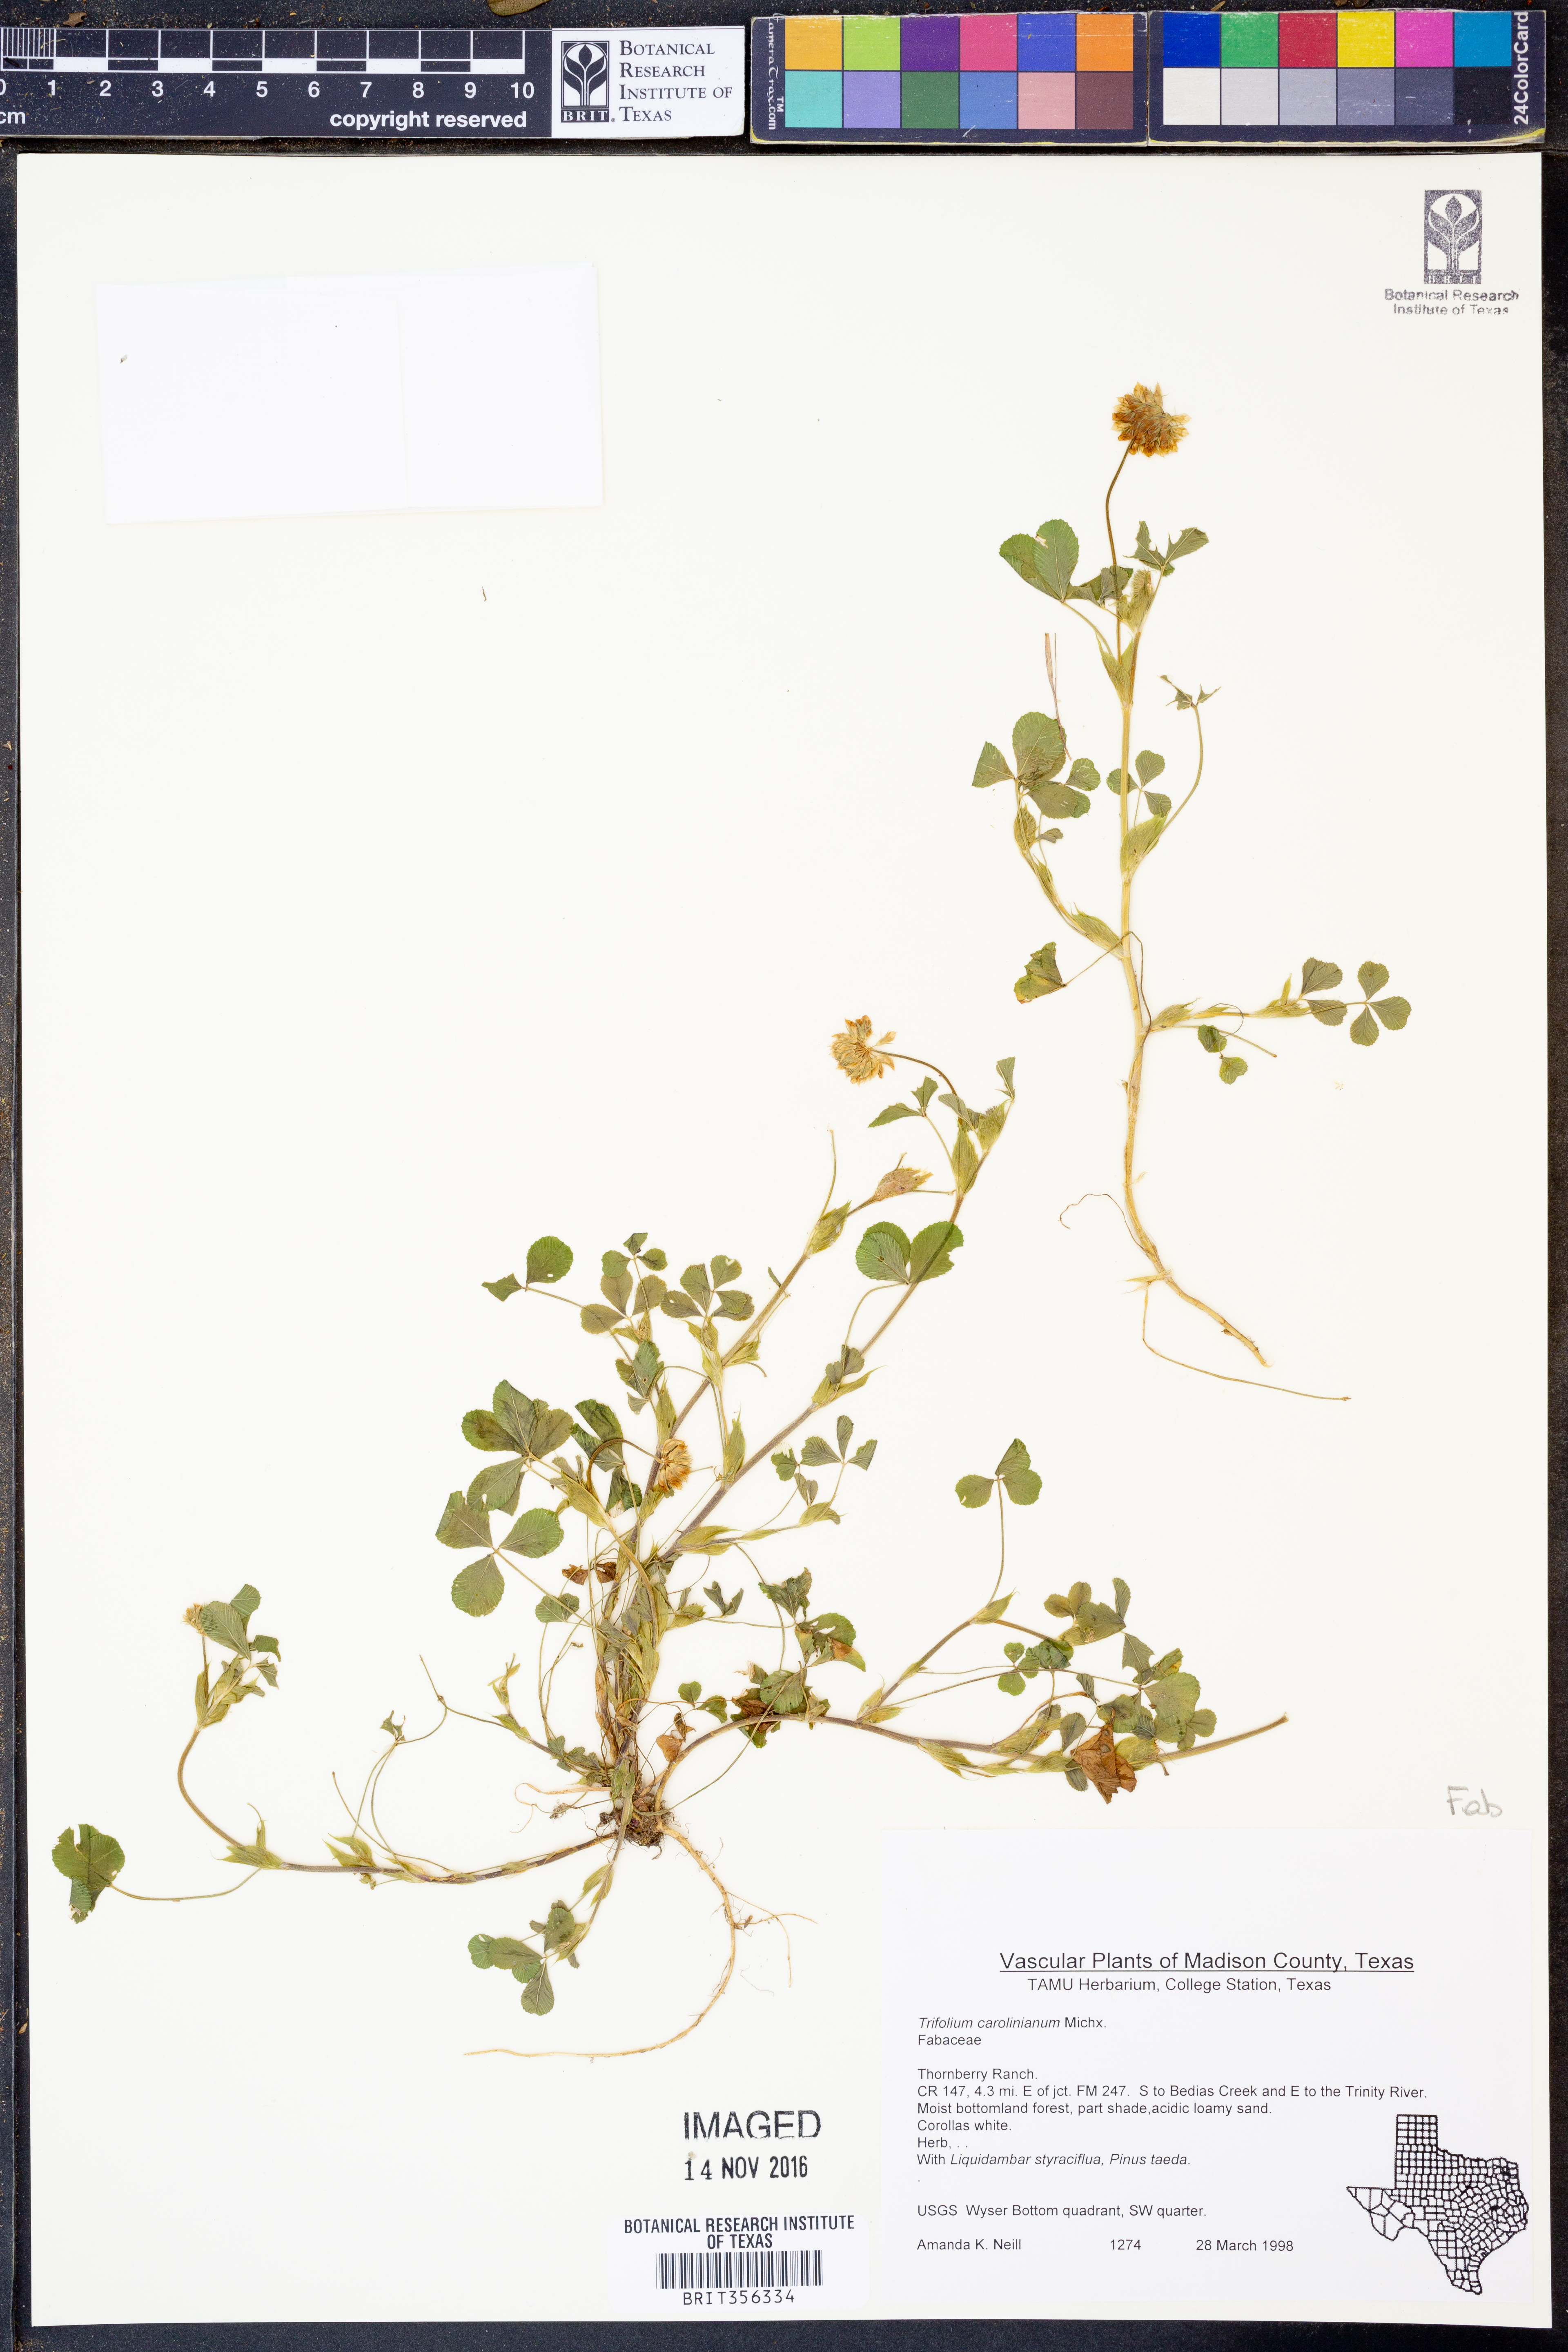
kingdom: Plantae
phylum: Tracheophyta
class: Magnoliopsida
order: Fabales
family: Fabaceae
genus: Trifolium
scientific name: Trifolium carolinianum
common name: Wild white clover
